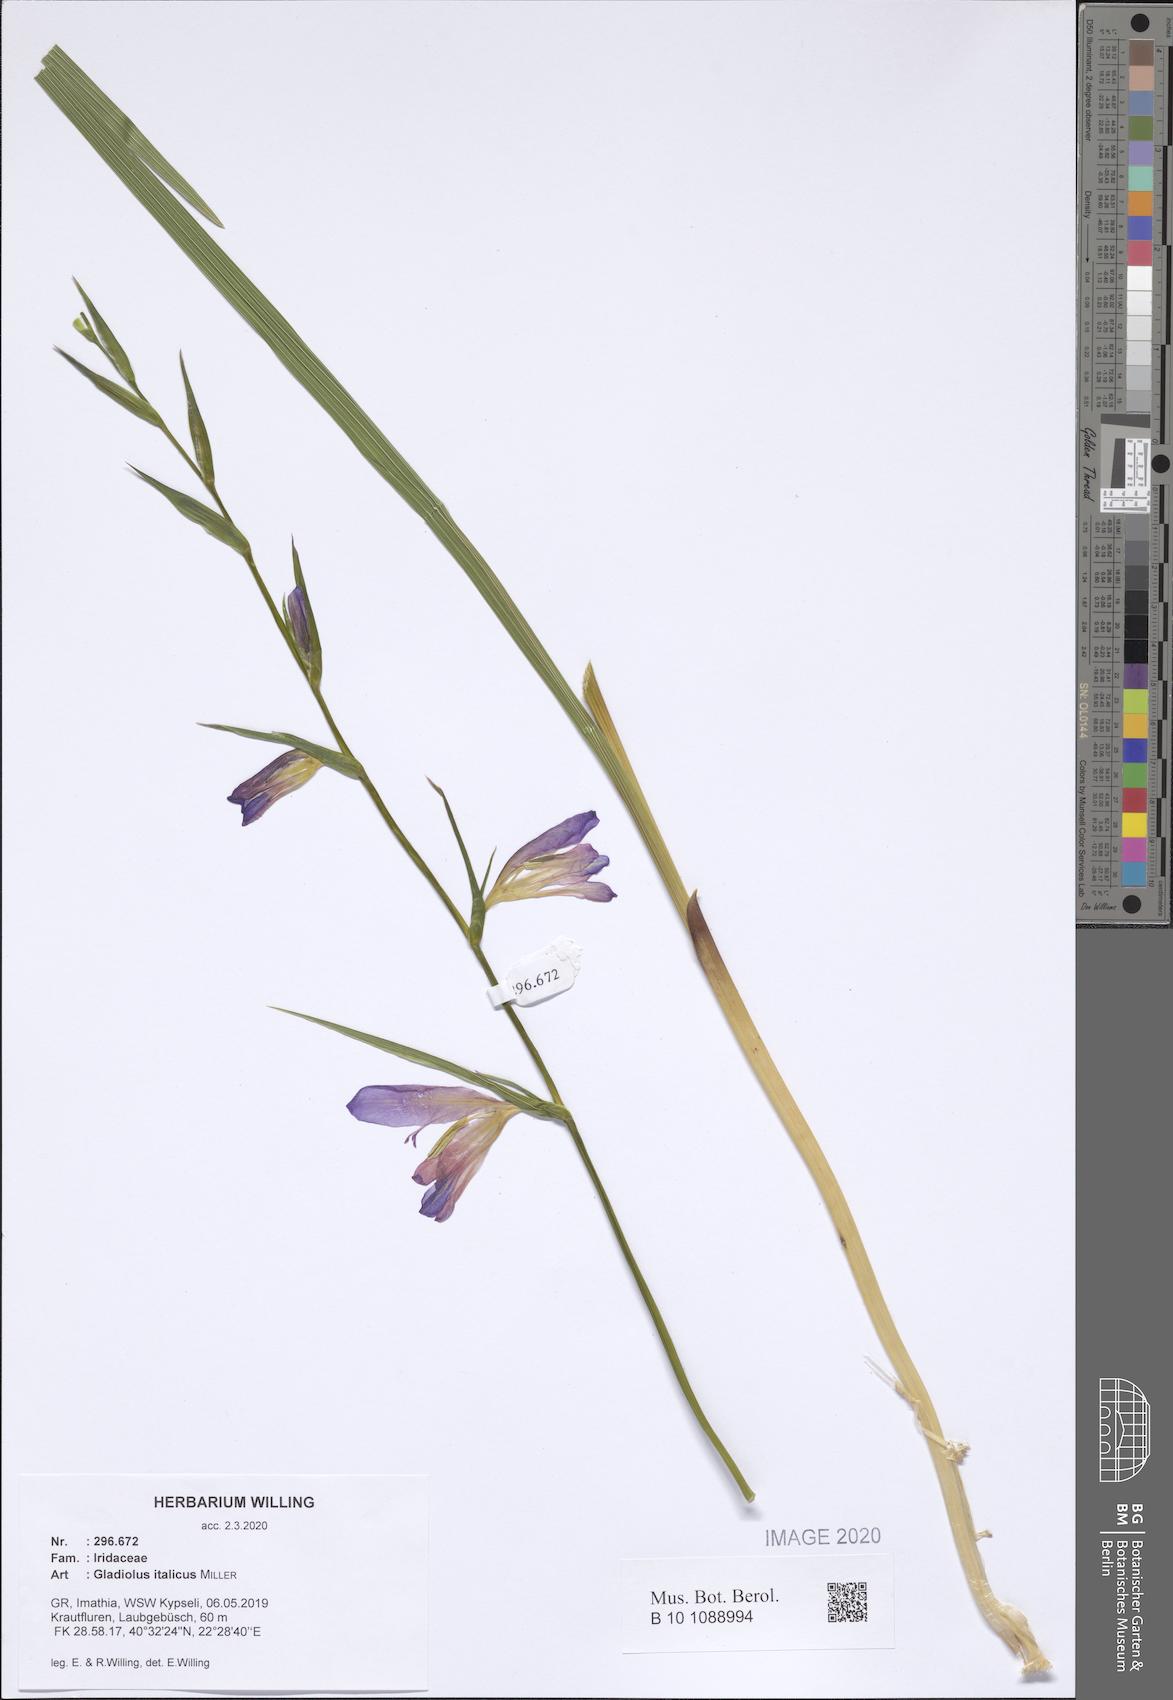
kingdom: Plantae
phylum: Tracheophyta
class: Liliopsida
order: Asparagales
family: Iridaceae
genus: Gladiolus
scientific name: Gladiolus italicus
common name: Field gladiolus
